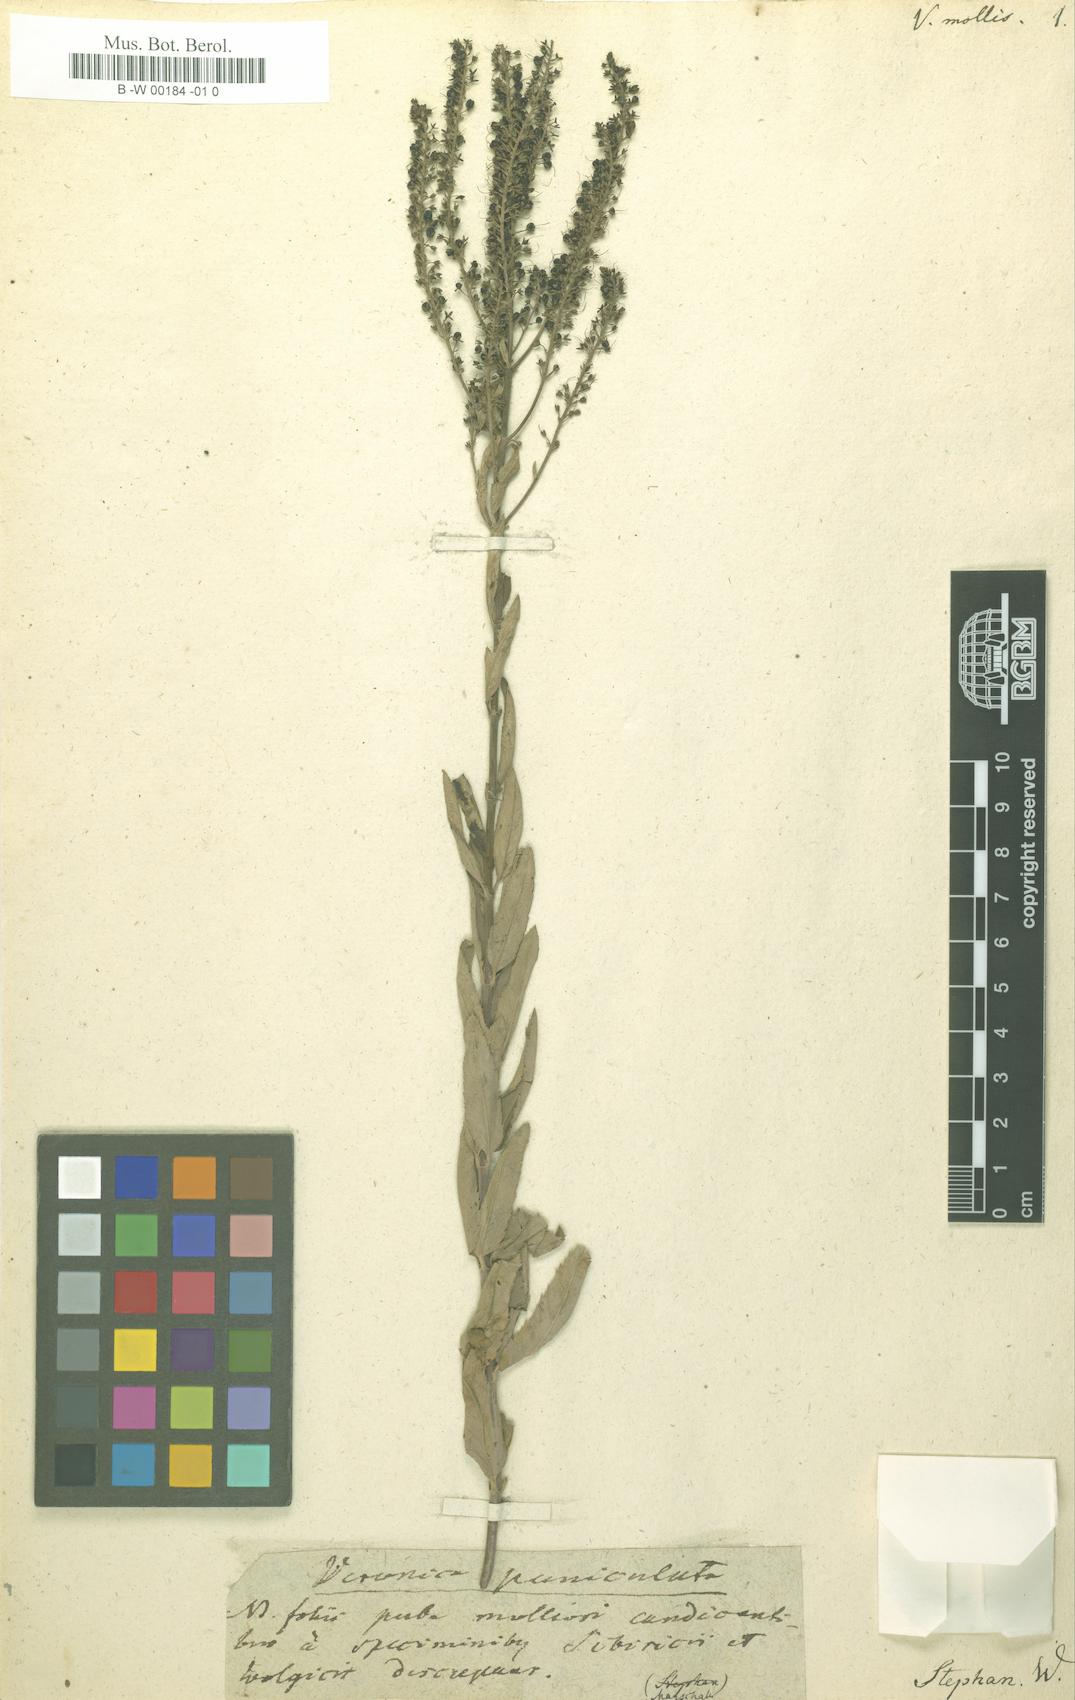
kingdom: Plantae
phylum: Tracheophyta
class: Magnoliopsida
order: Lamiales
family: Plantaginaceae
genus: Veronica
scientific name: Veronica
